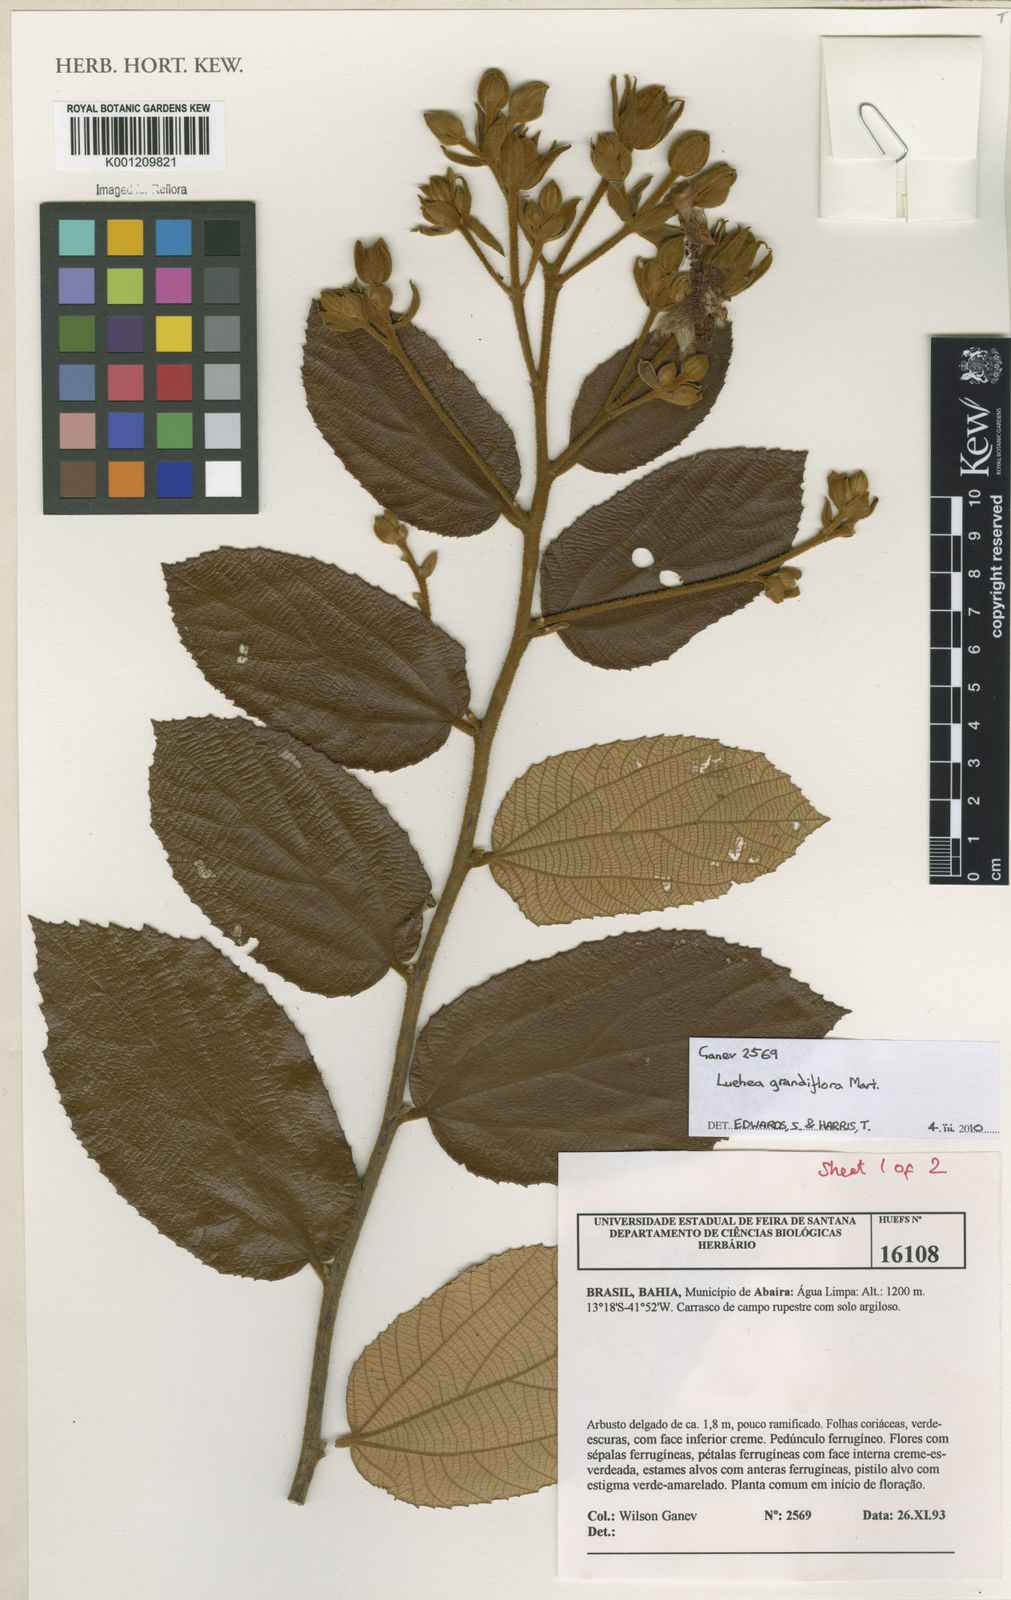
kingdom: Plantae
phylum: Tracheophyta
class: Magnoliopsida
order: Malvales
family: Malvaceae
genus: Luehea
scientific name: Luehea grandiflora
